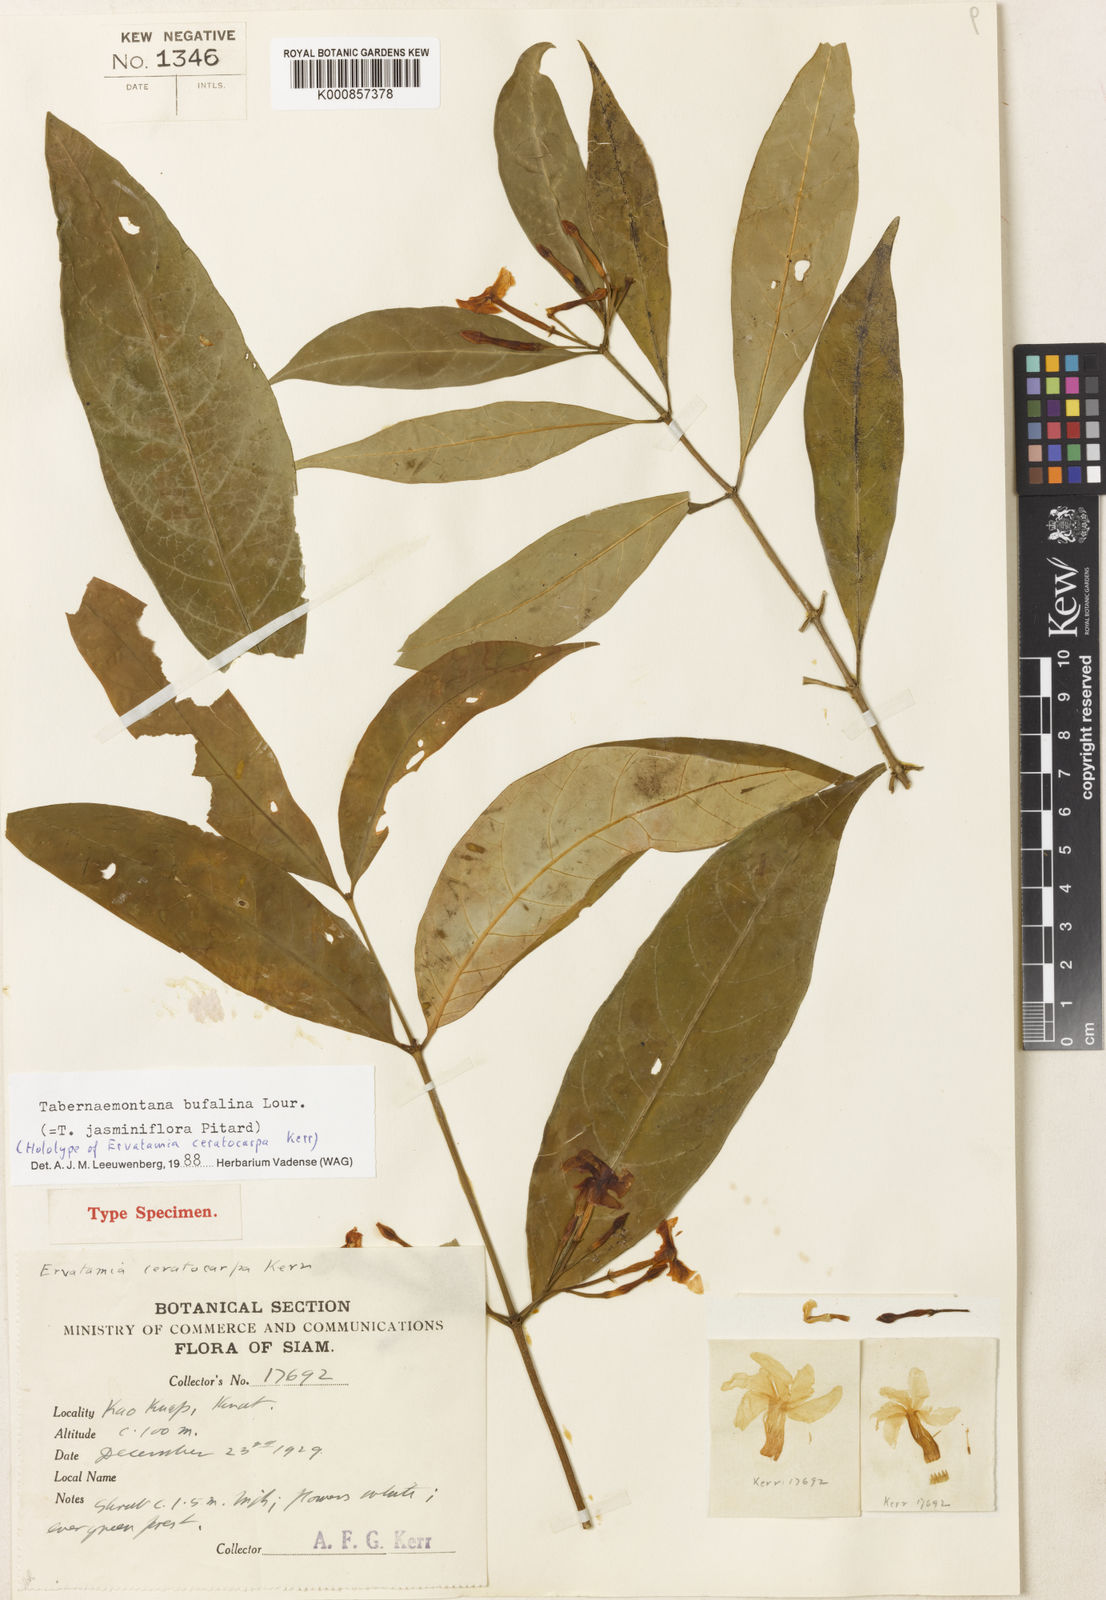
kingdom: Plantae
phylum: Tracheophyta
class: Magnoliopsida
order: Gentianales
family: Apocynaceae
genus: Tabernaemontana
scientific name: Tabernaemontana bufalina
